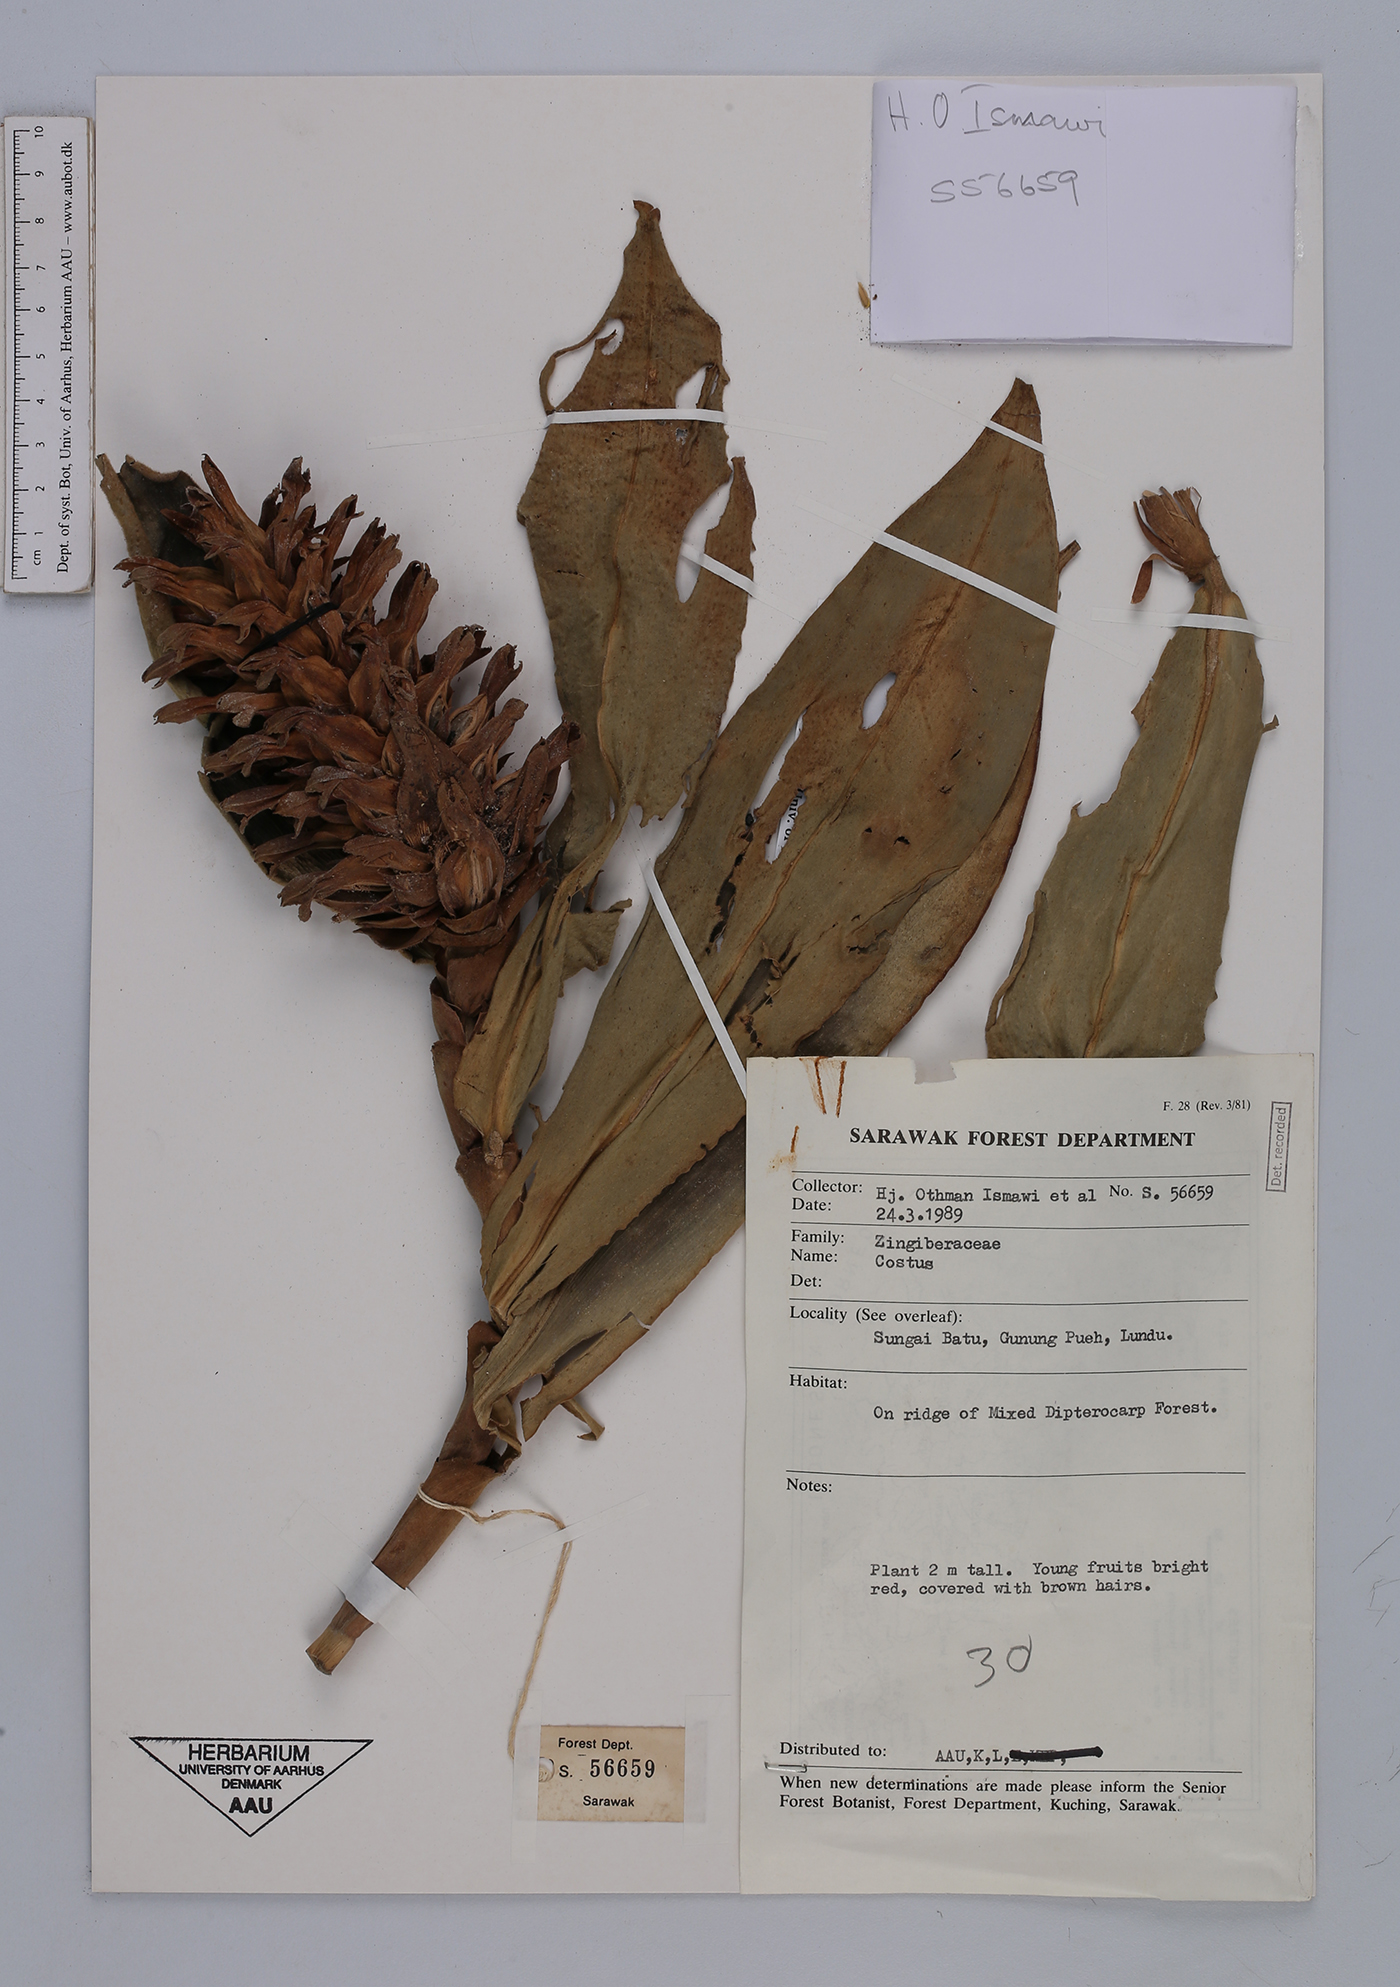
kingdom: Plantae
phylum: Tracheophyta
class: Liliopsida
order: Zingiberales
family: Costaceae
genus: Costus
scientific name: Costus
